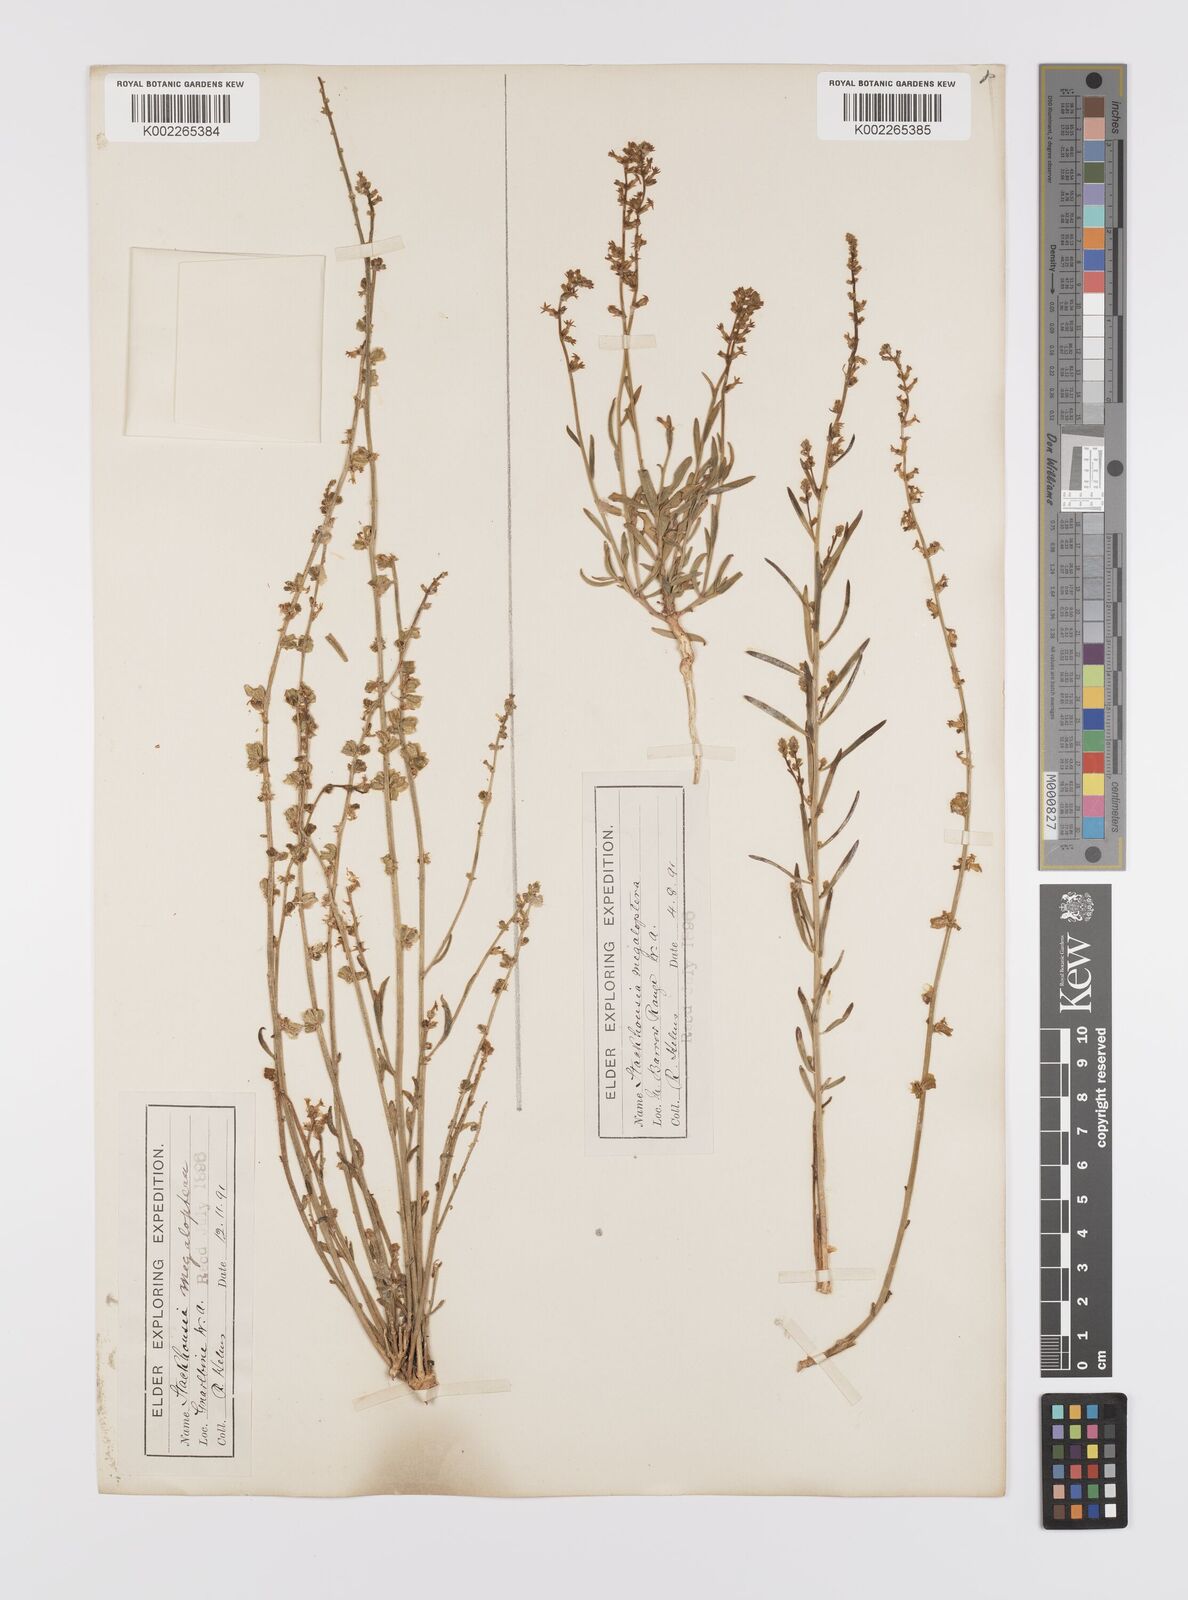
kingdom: Plantae
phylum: Tracheophyta
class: Magnoliopsida
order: Celastrales
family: Celastraceae
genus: Stackhousia
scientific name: Stackhousia megaloptera
